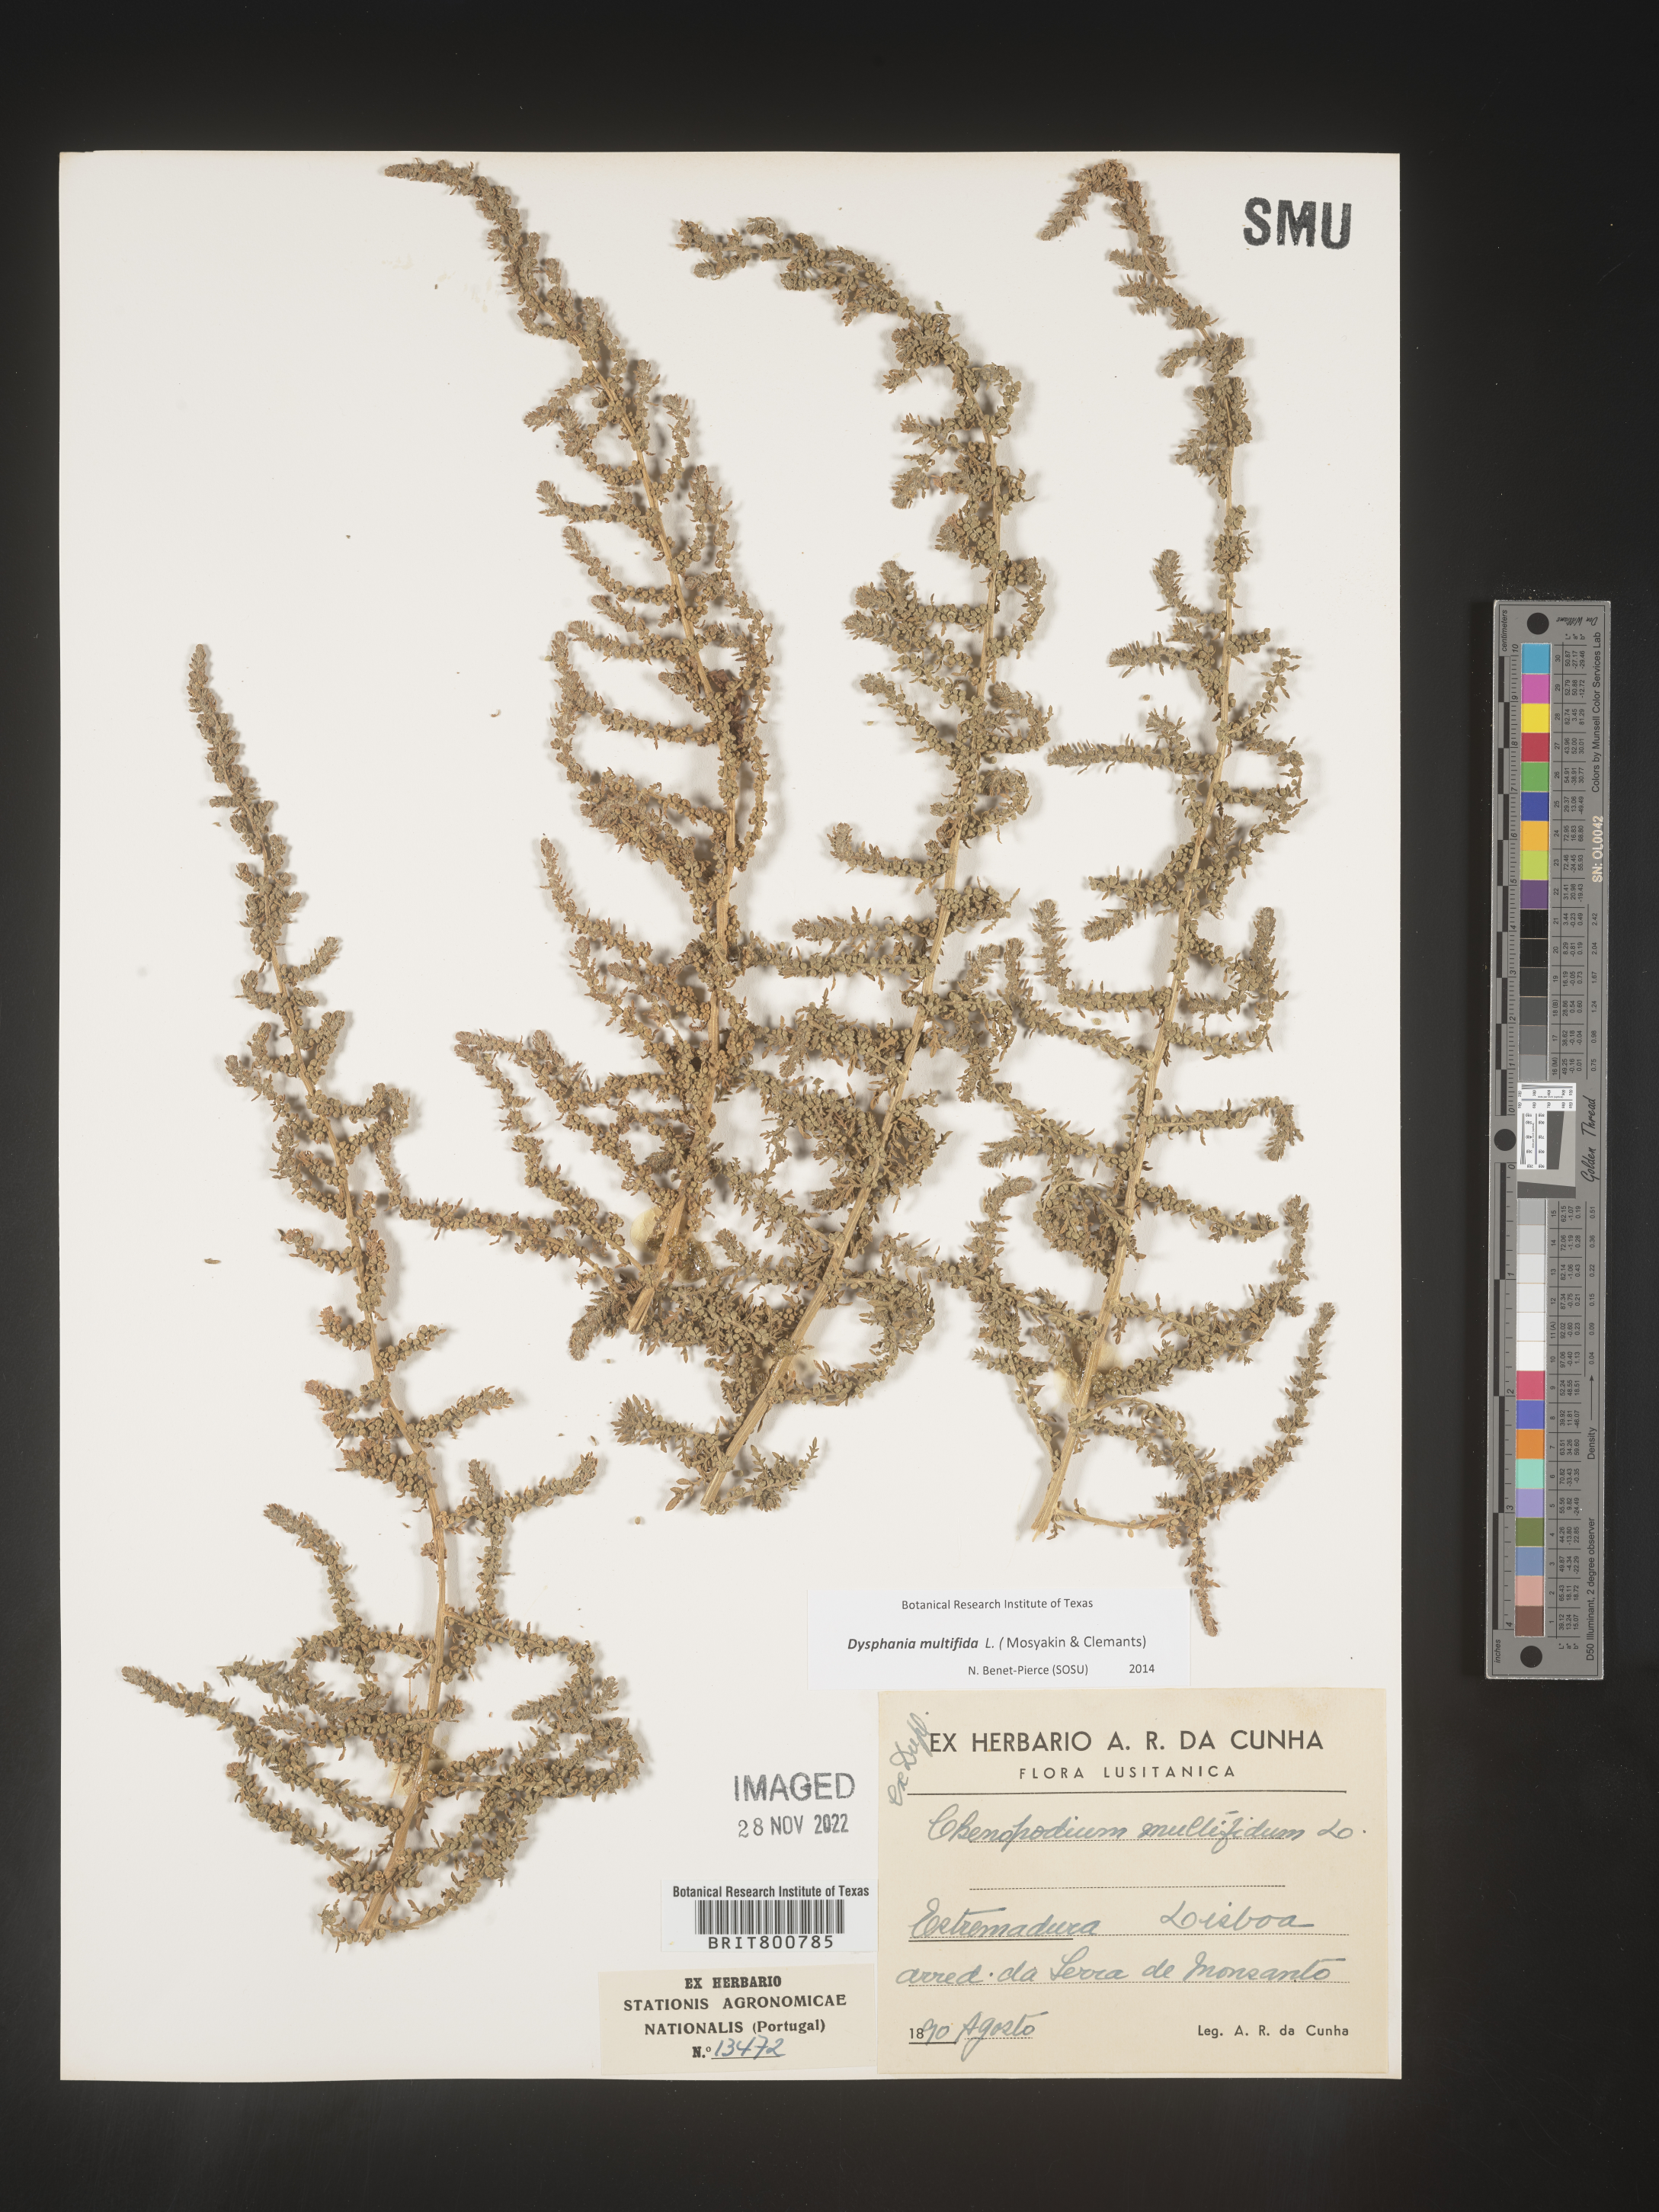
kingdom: Plantae
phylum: Tracheophyta
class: Magnoliopsida
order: Caryophyllales
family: Amaranthaceae
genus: Chenopodium
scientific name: Chenopodium
